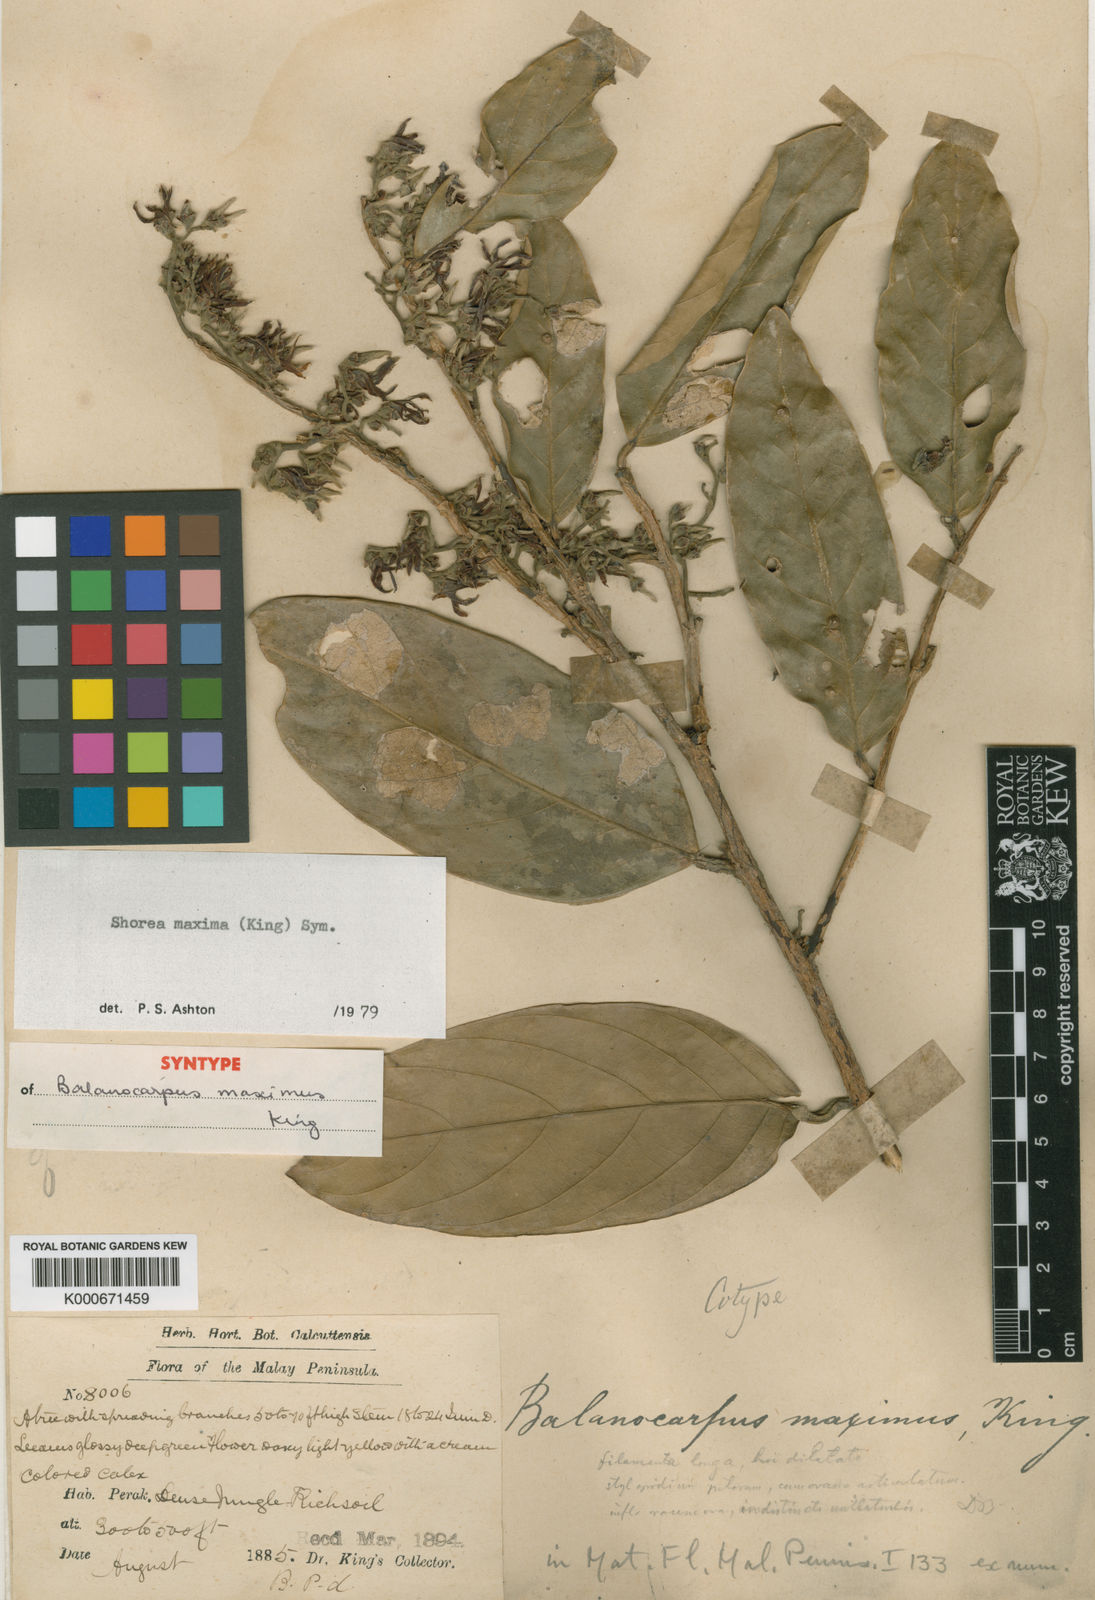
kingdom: Plantae
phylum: Tracheophyta
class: Magnoliopsida
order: Malvales
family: Dipterocarpaceae
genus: Shorea
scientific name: Shorea maxima
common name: Yellow meranti
